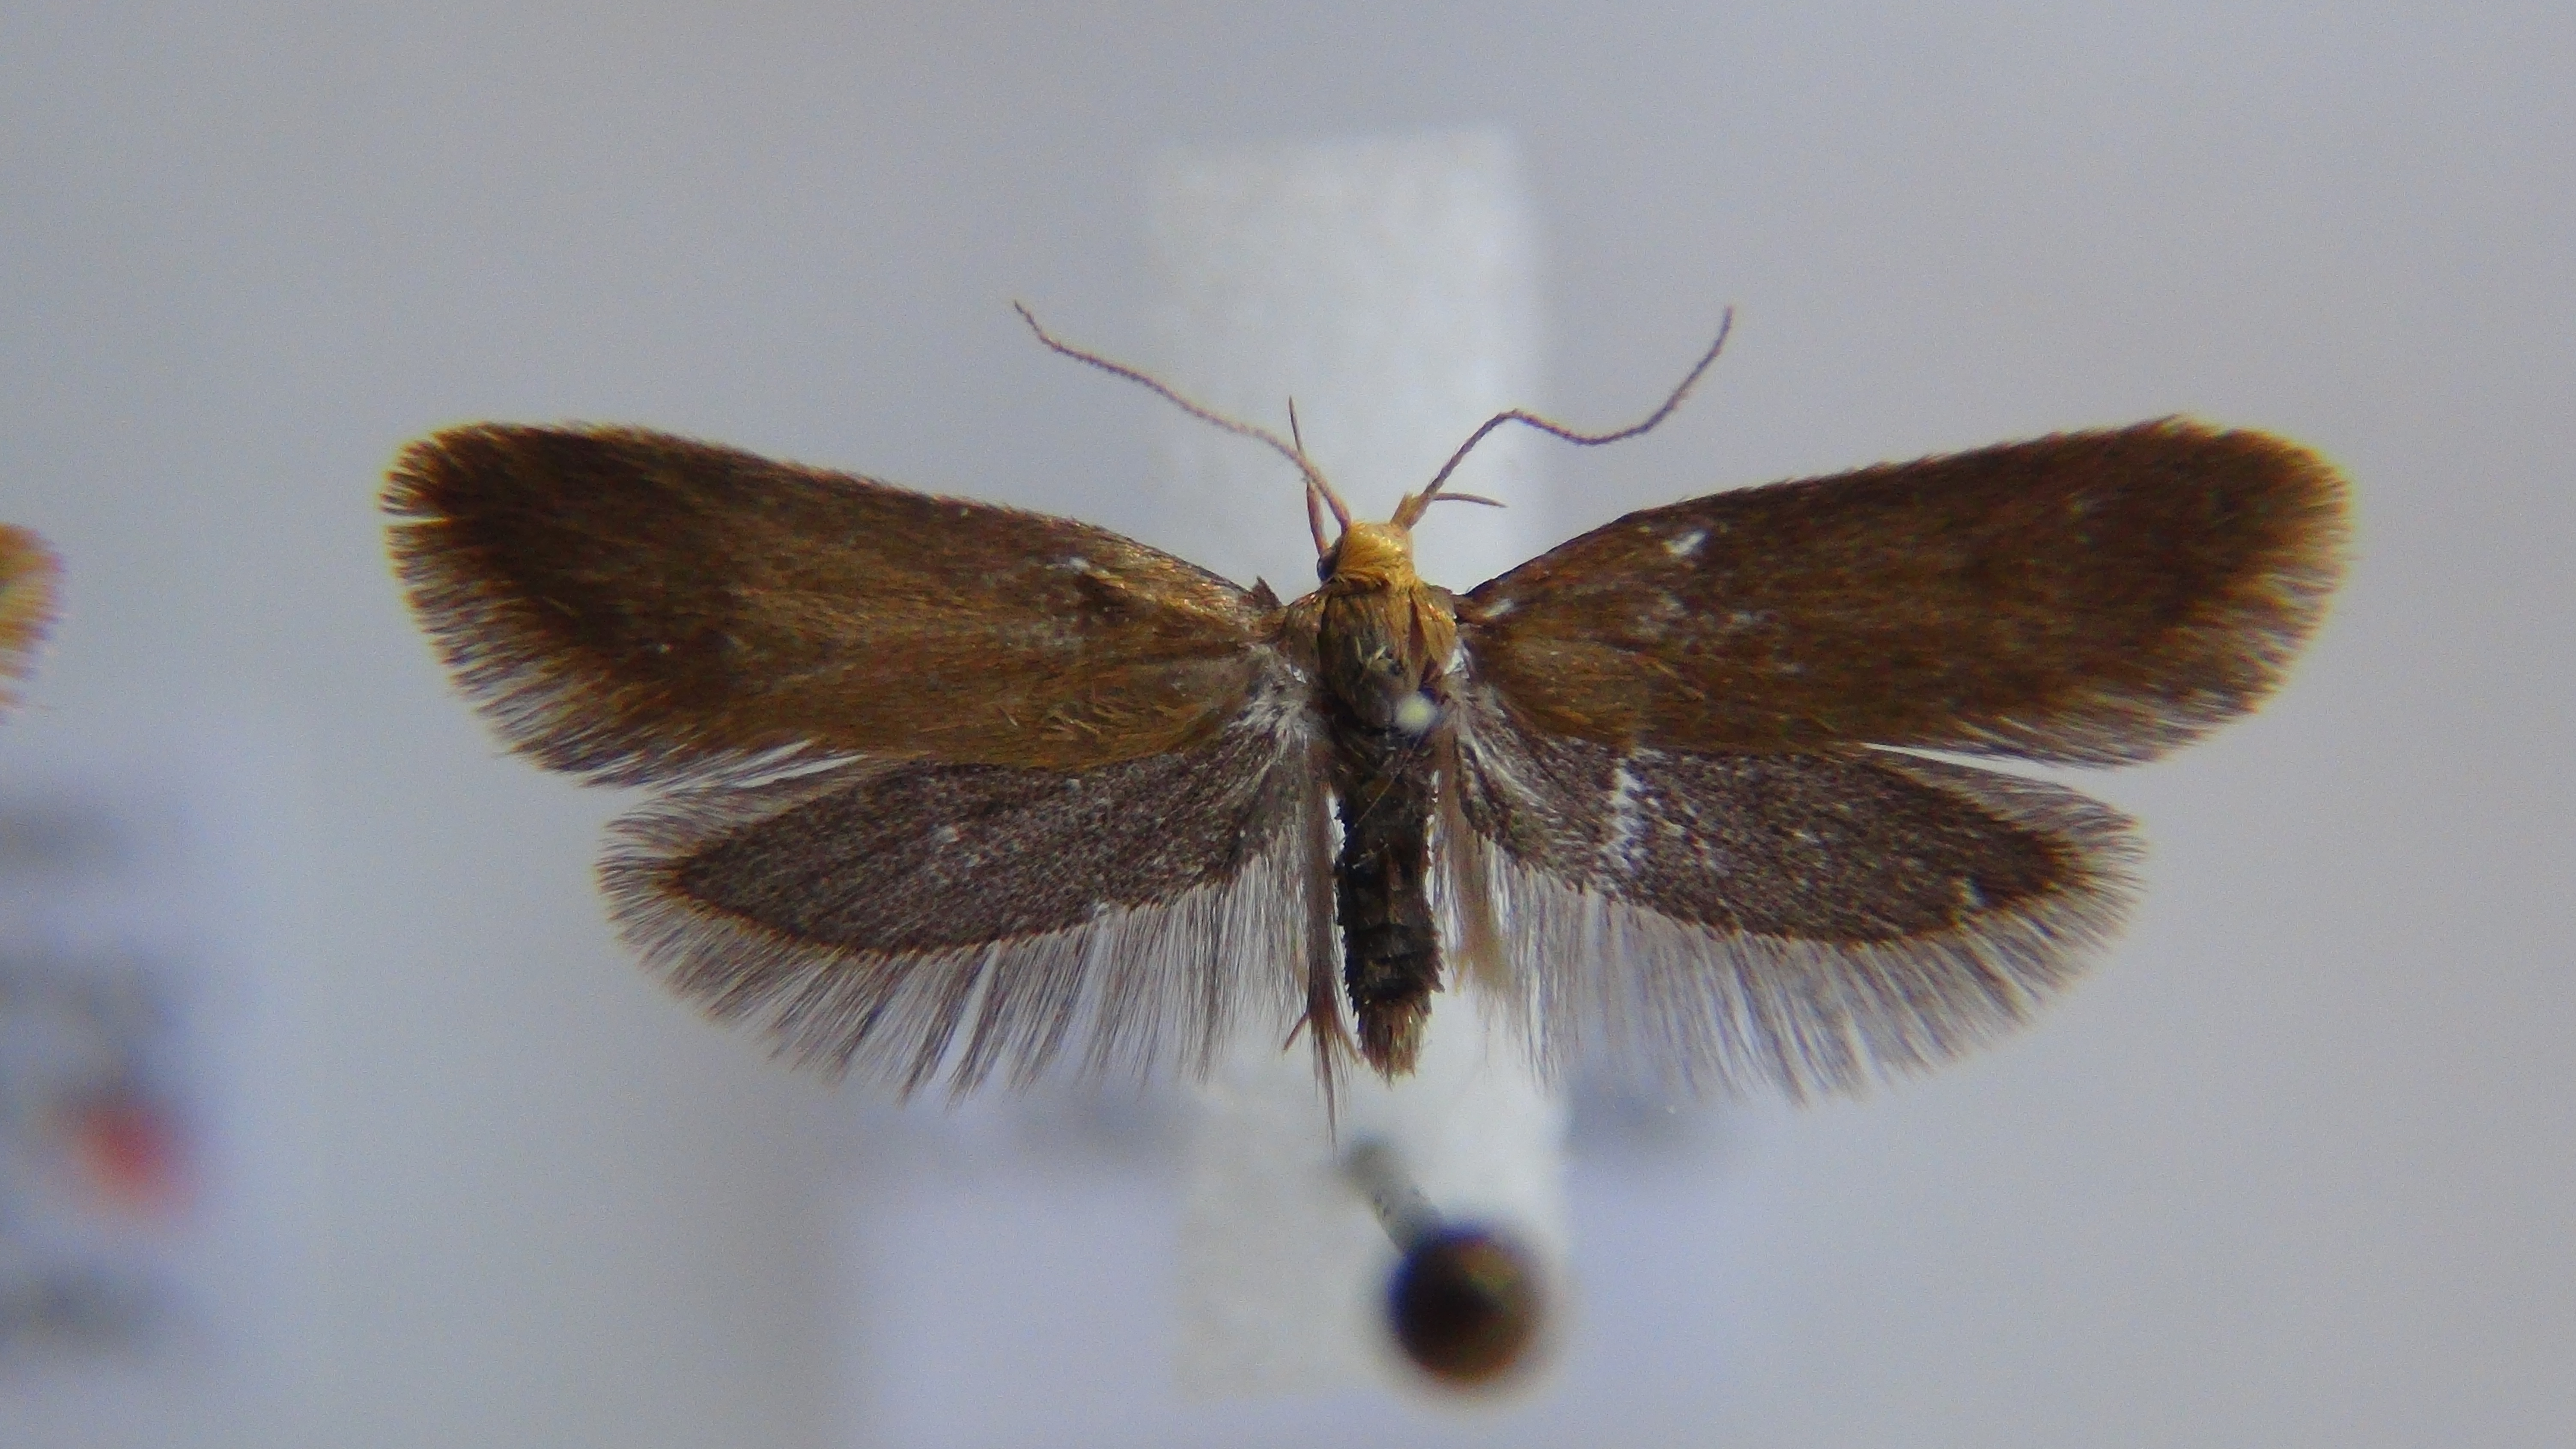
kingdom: Animalia
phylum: Arthropoda
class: Insecta
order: Lepidoptera
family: Oecophoridae
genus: Borkhausenia
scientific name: Borkhausenia Crassa tinctella
